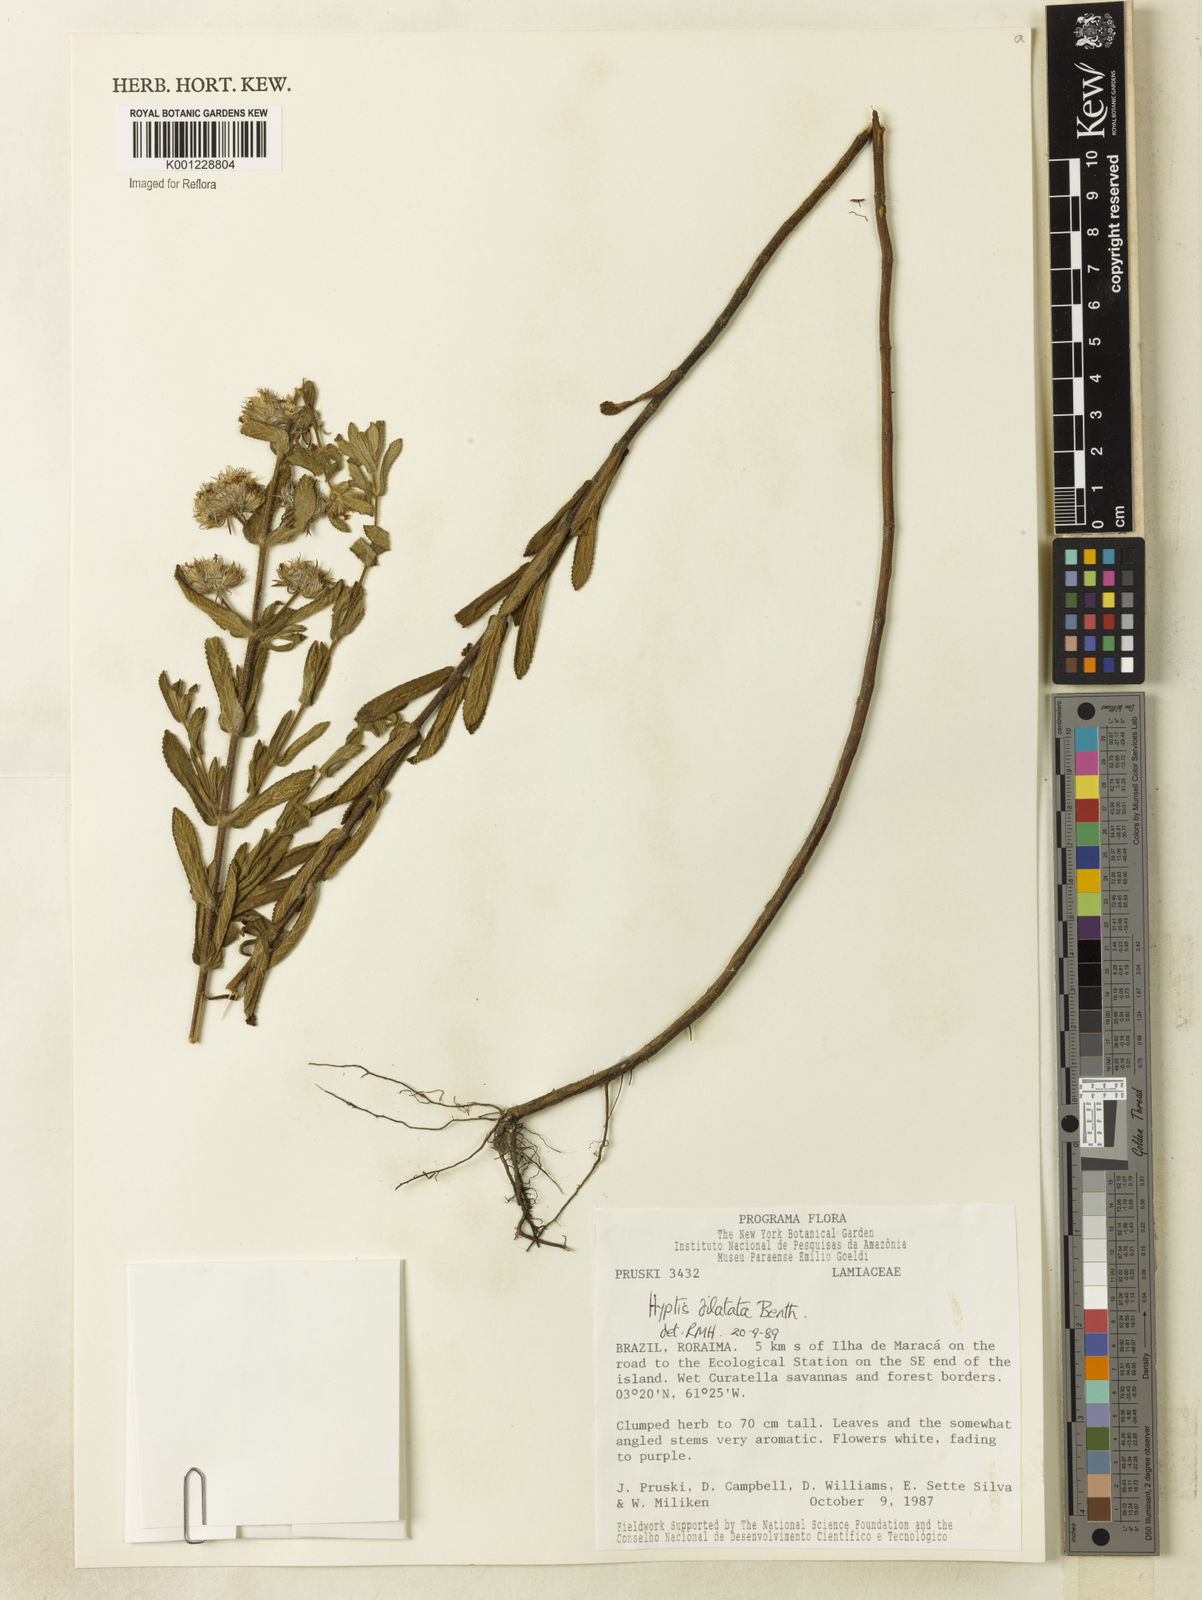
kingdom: Plantae
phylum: Tracheophyta
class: Magnoliopsida
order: Lamiales
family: Lamiaceae
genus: Hyptis
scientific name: Hyptis dilatata
